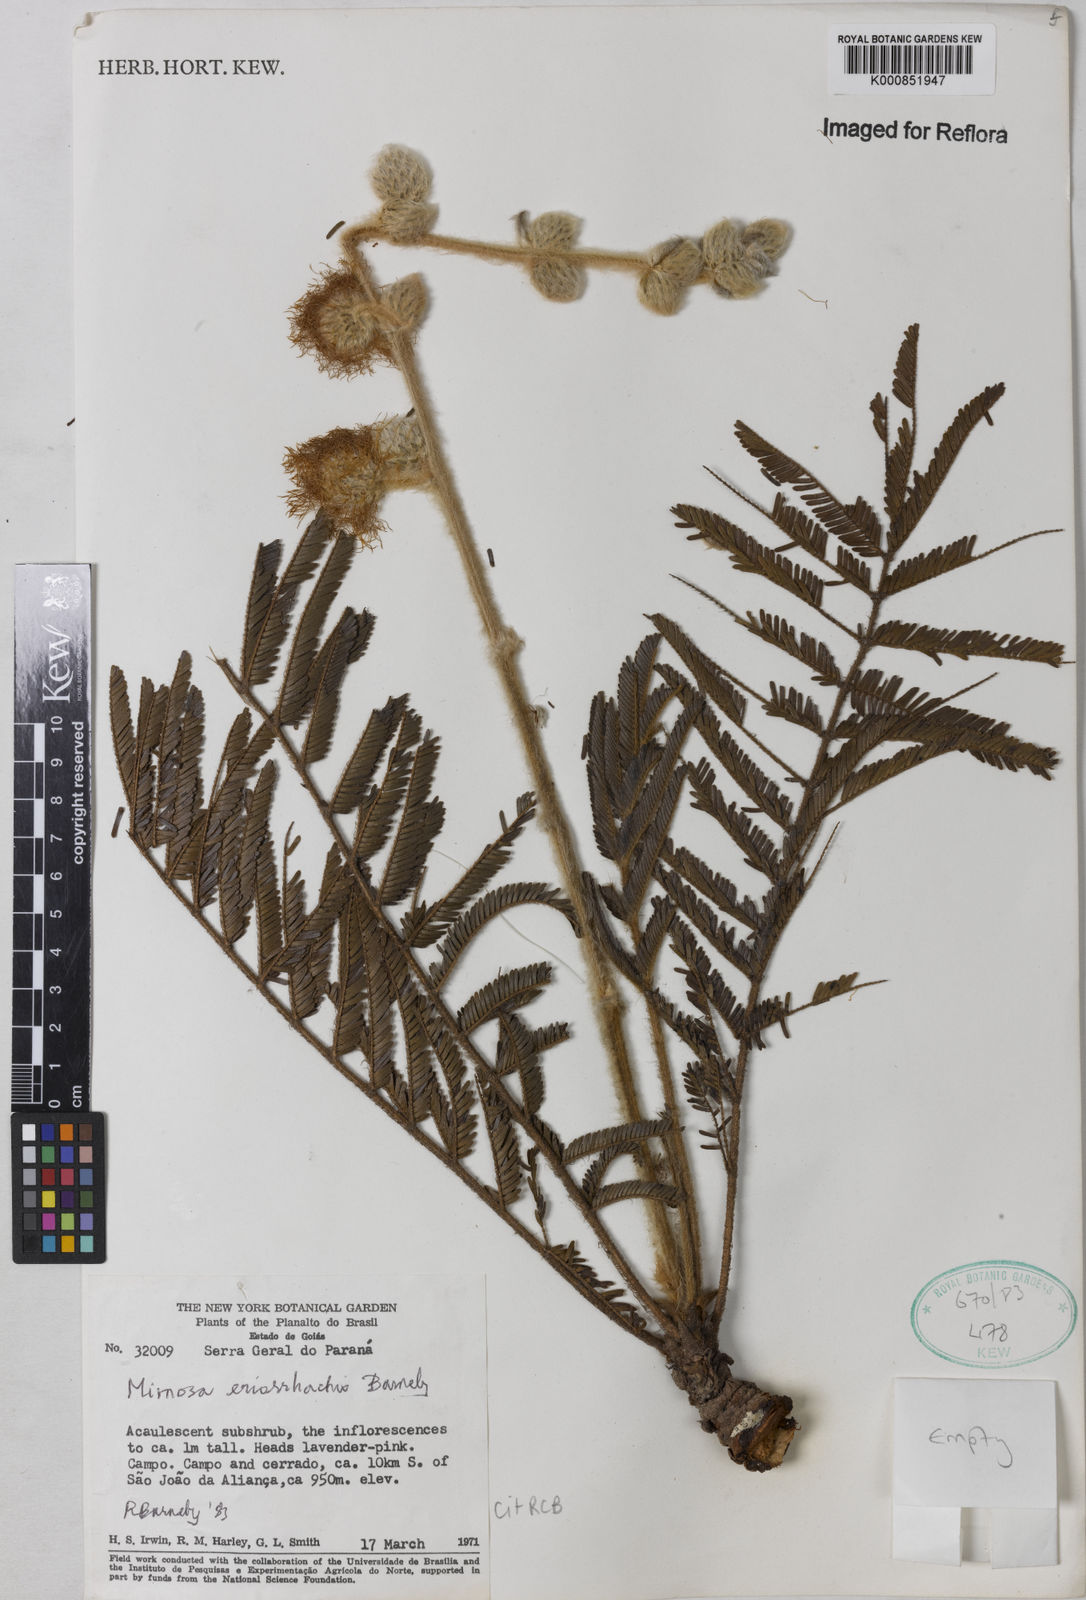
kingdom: Plantae
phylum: Tracheophyta
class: Magnoliopsida
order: Fabales
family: Fabaceae
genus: Mimosa
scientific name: Mimosa eriorrhachis
